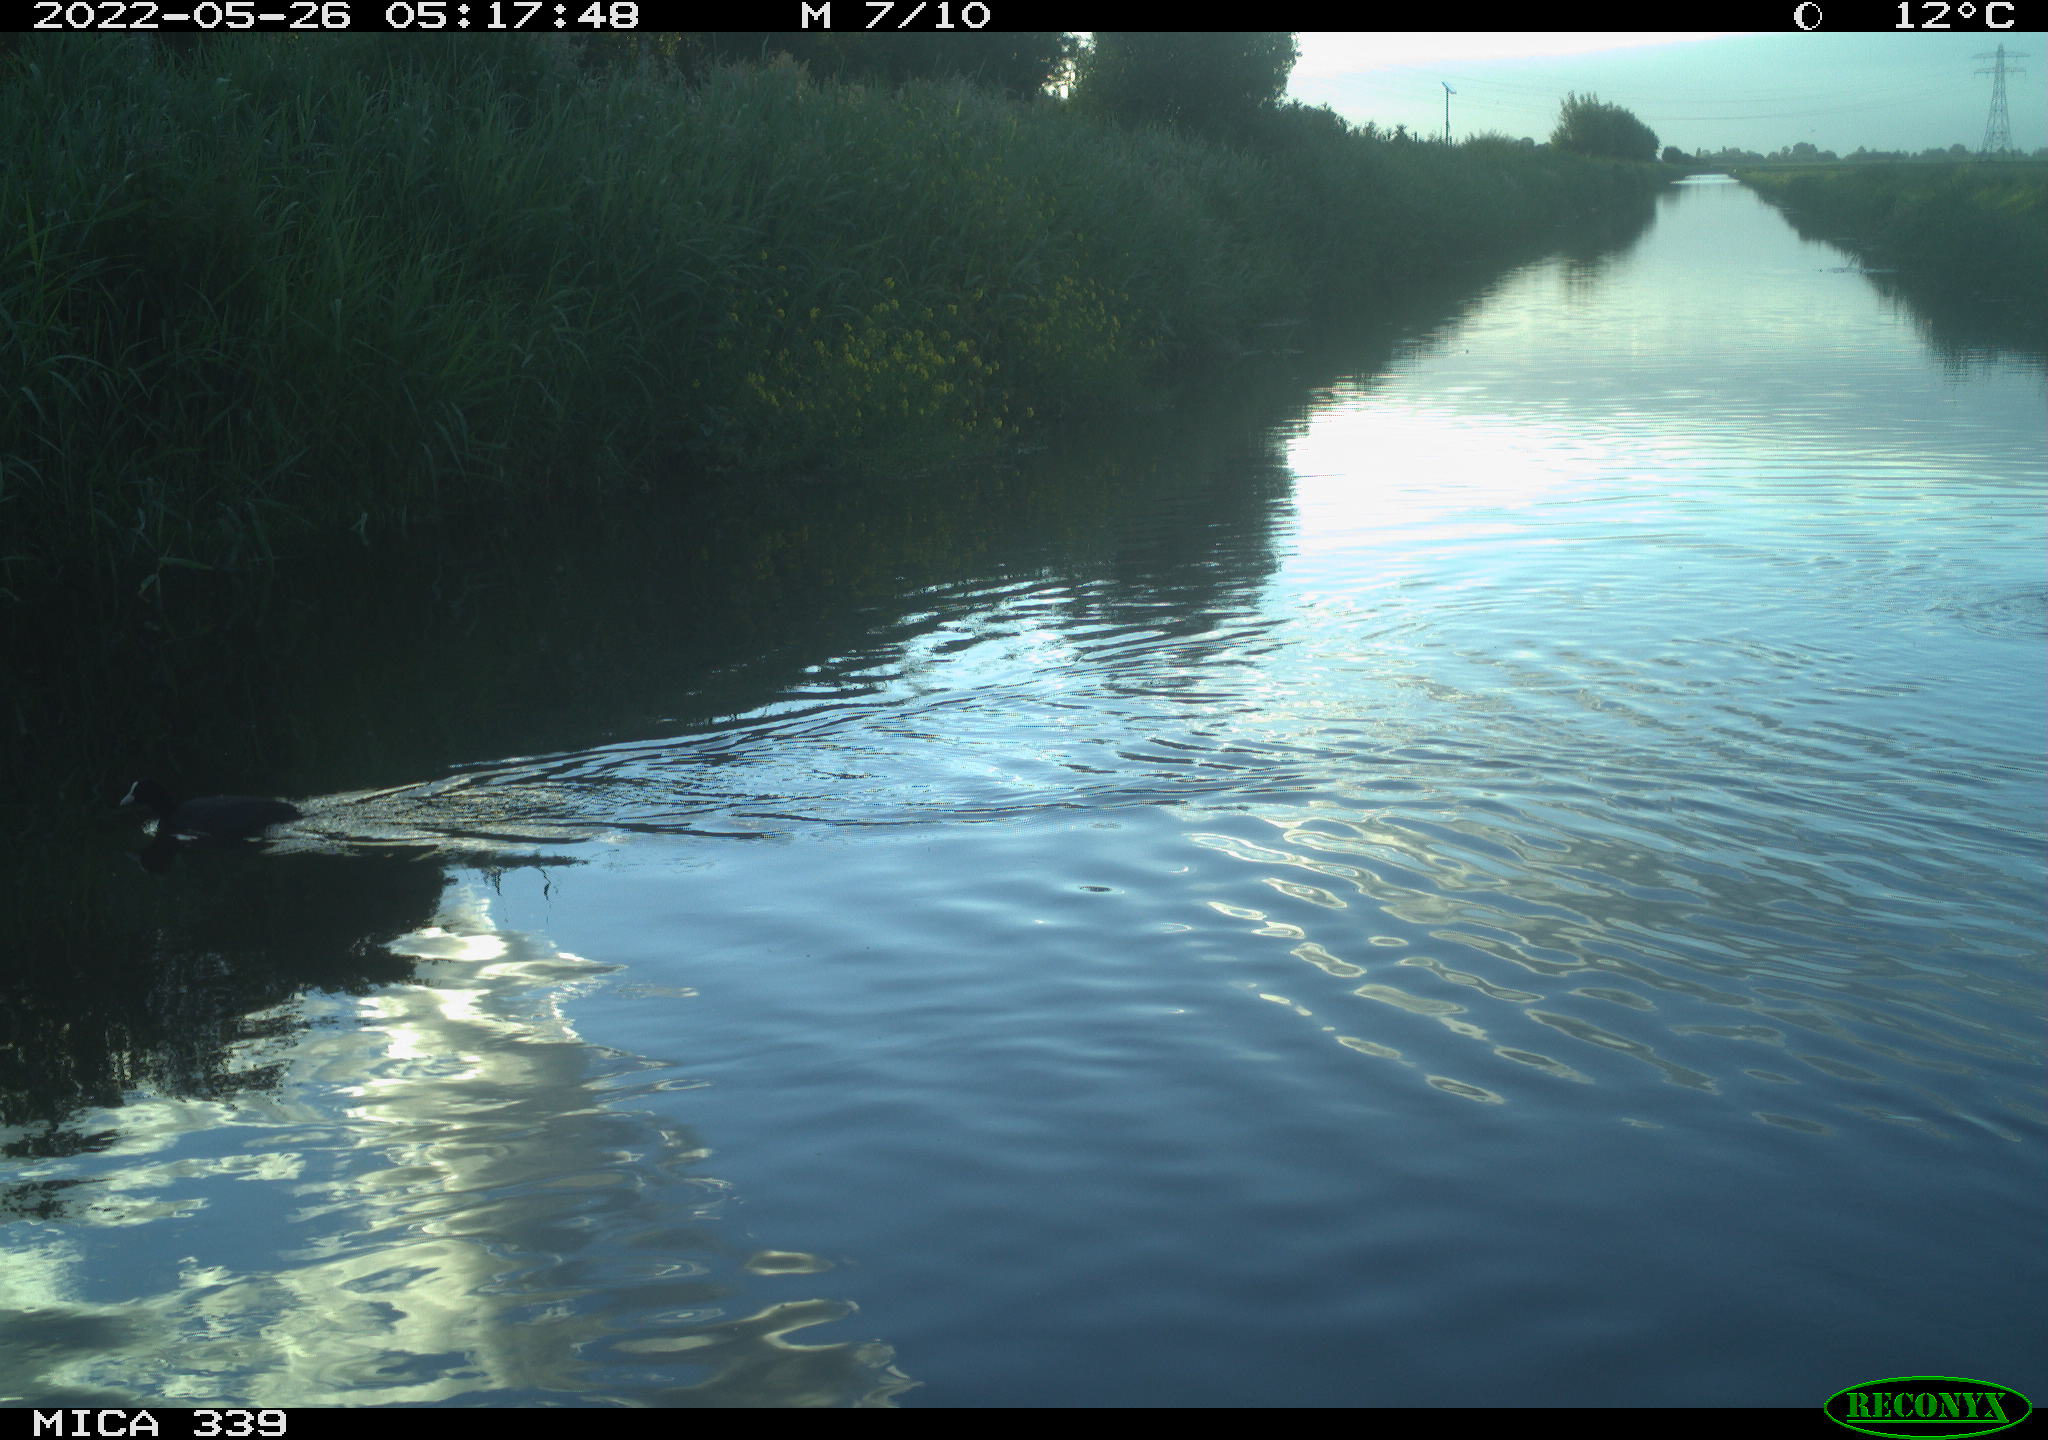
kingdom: Animalia
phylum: Chordata
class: Aves
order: Gruiformes
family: Rallidae
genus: Fulica
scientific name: Fulica atra
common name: Eurasian coot
